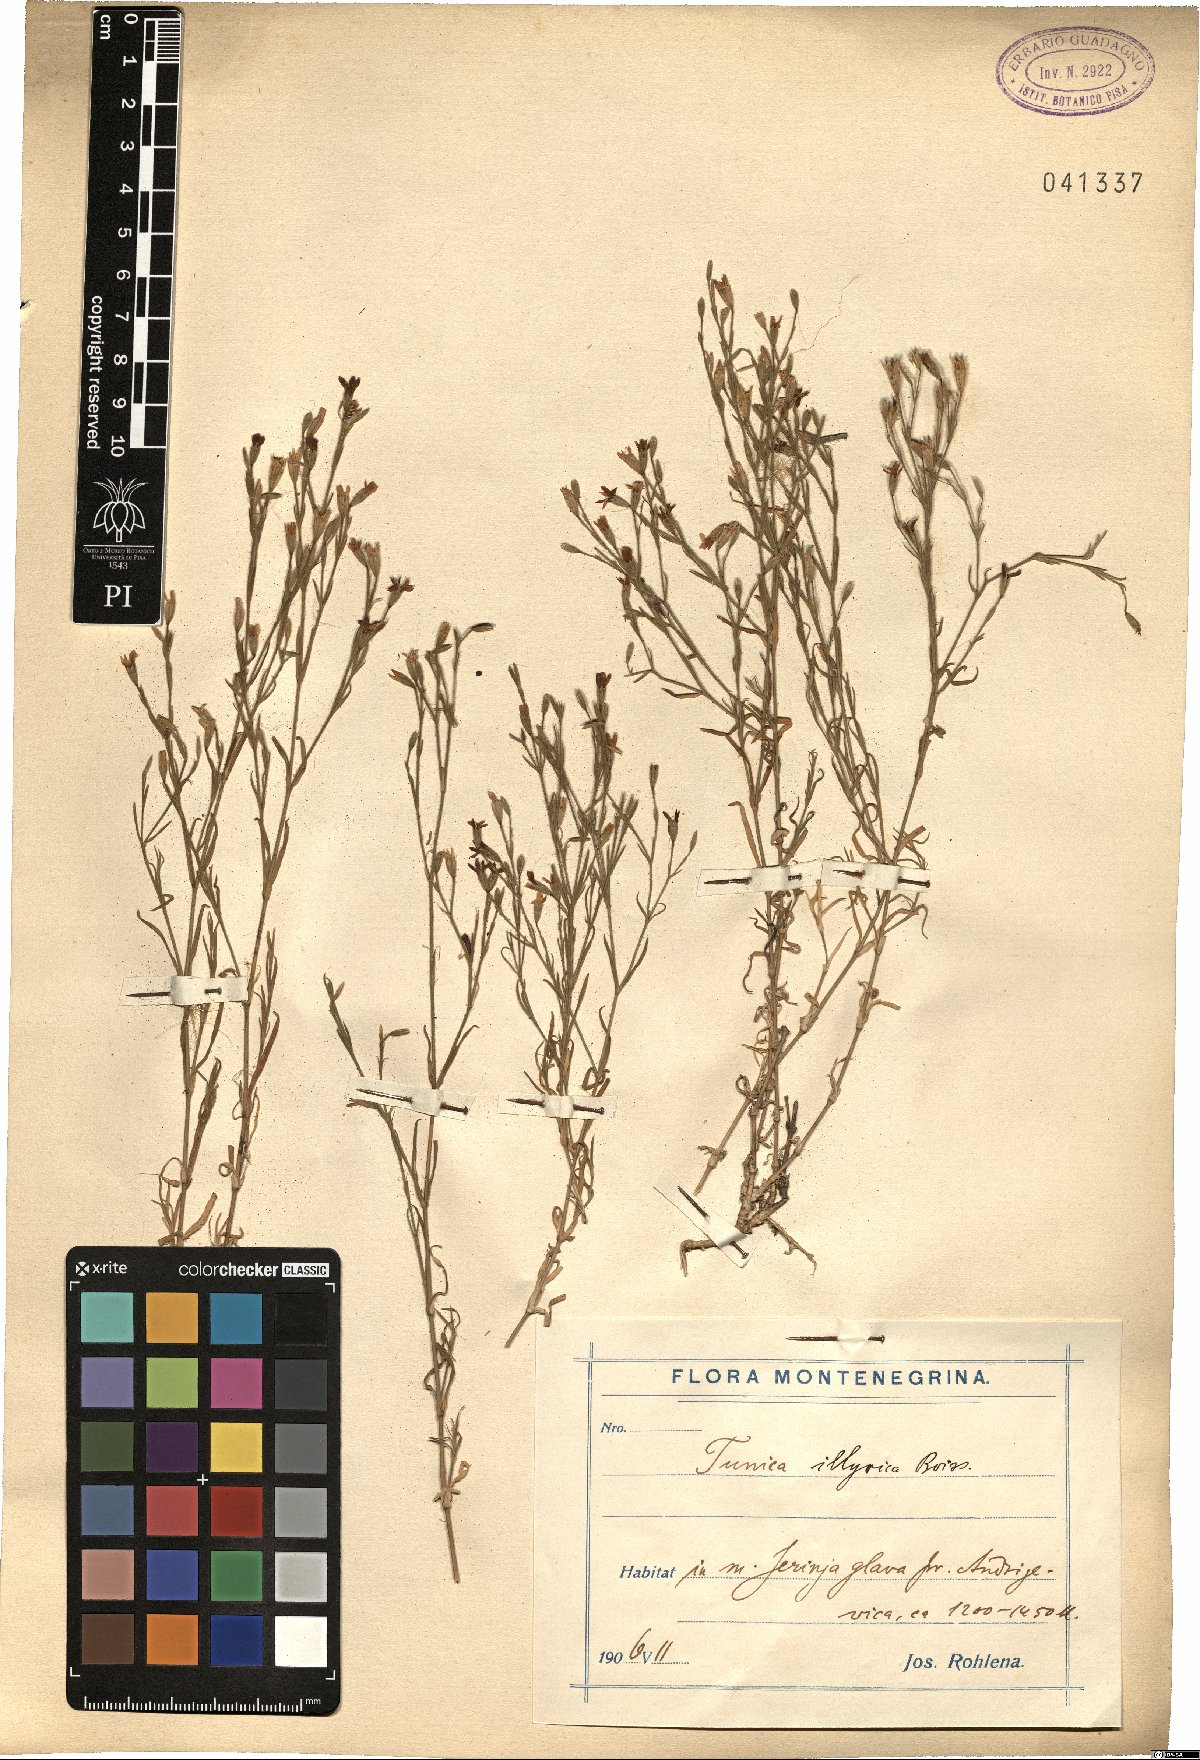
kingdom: Plantae
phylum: Tracheophyta
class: Magnoliopsida
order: Caryophyllales
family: Caryophyllaceae
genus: Dianthus
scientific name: Dianthus illyricus
